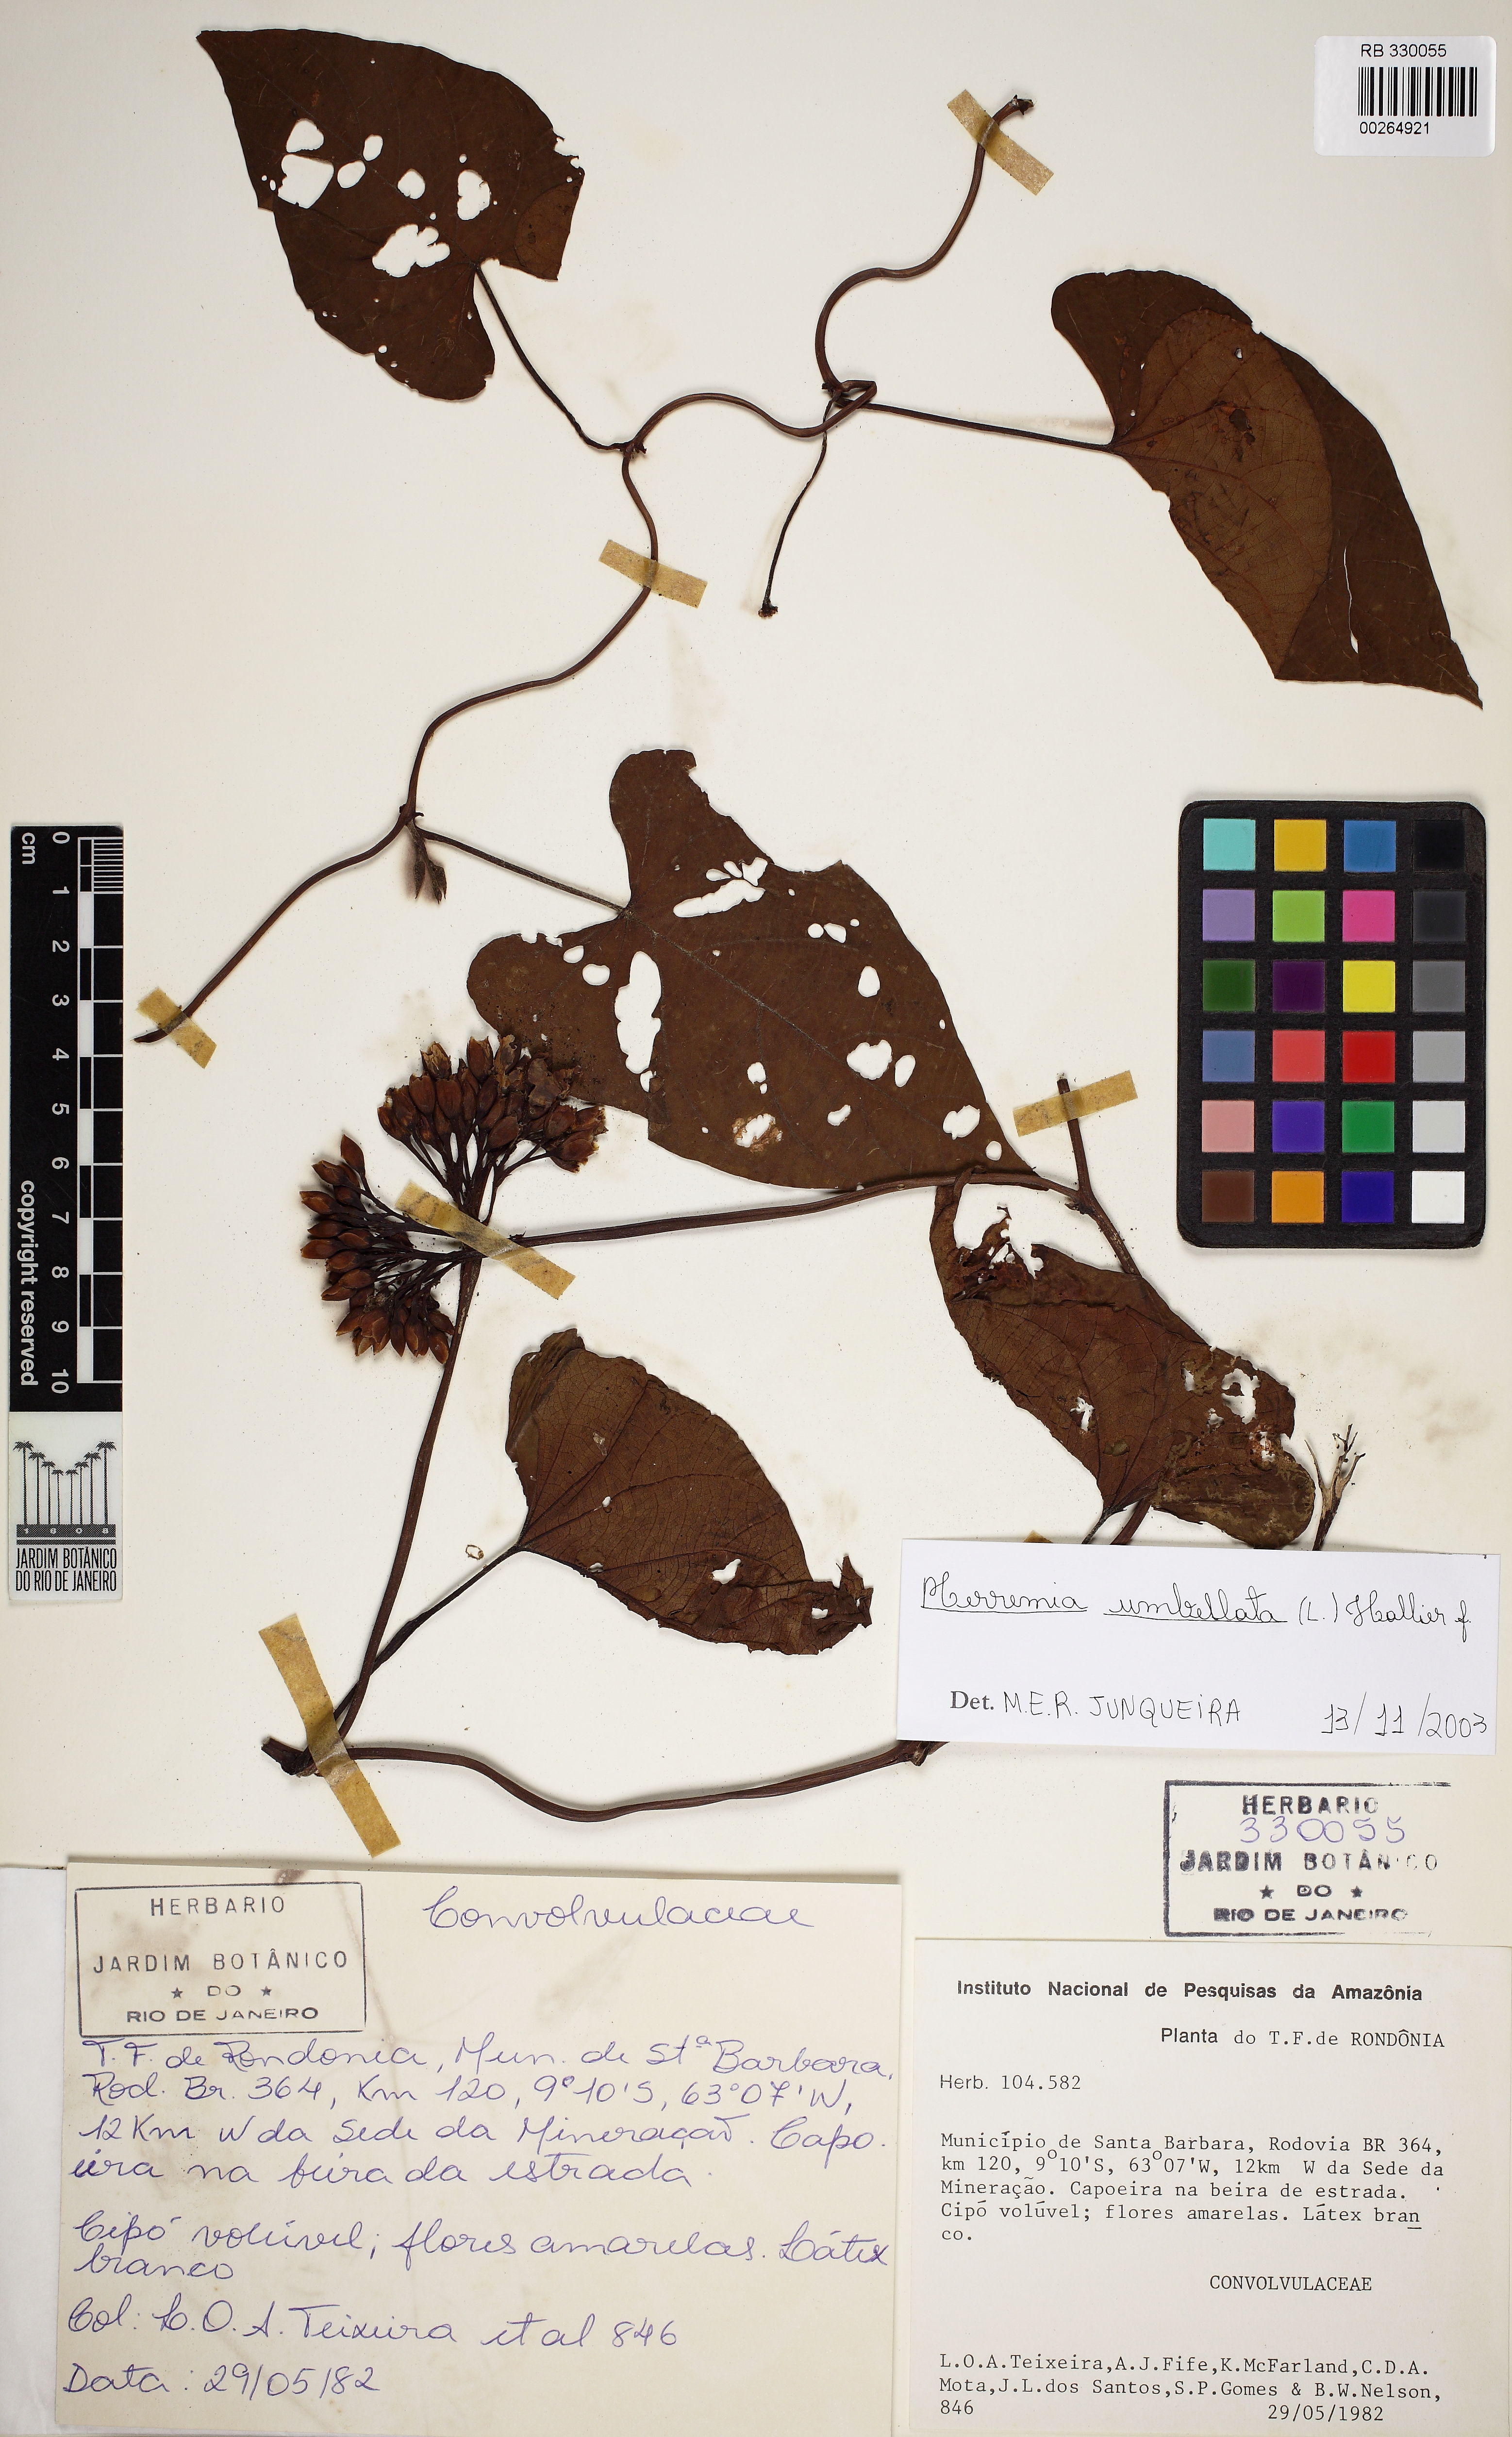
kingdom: Plantae
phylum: Tracheophyta
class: Magnoliopsida
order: Solanales
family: Convolvulaceae
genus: Camonea
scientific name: Camonea umbellata
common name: Hogvine
